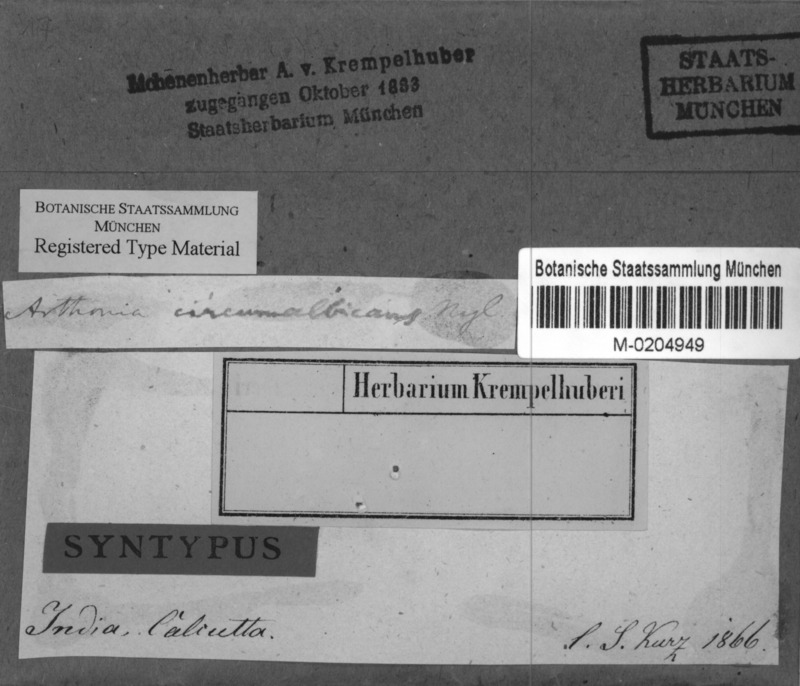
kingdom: Fungi
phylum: Ascomycota
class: Arthoniomycetes
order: Arthoniales
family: Arthoniaceae
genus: Arthonia
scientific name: Arthonia circumalbicans
